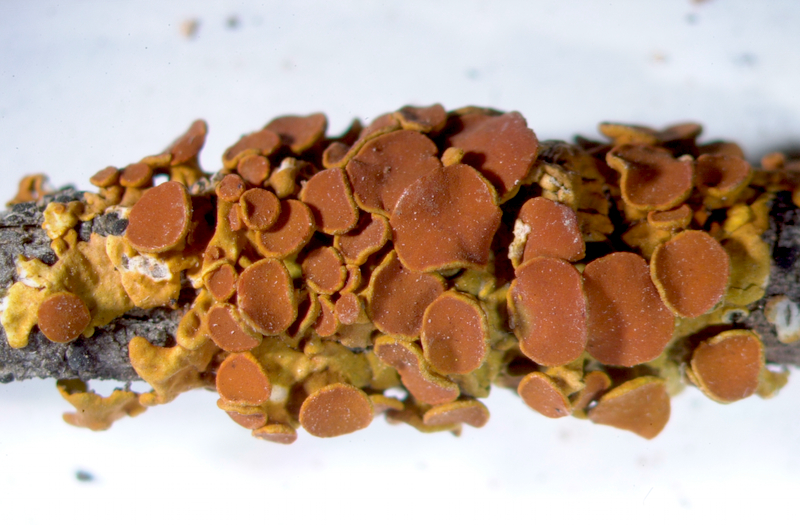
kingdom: Fungi
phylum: Ascomycota
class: Lecanoromycetes
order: Teloschistales
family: Teloschistaceae
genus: Dufourea
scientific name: Dufourea turbinata
